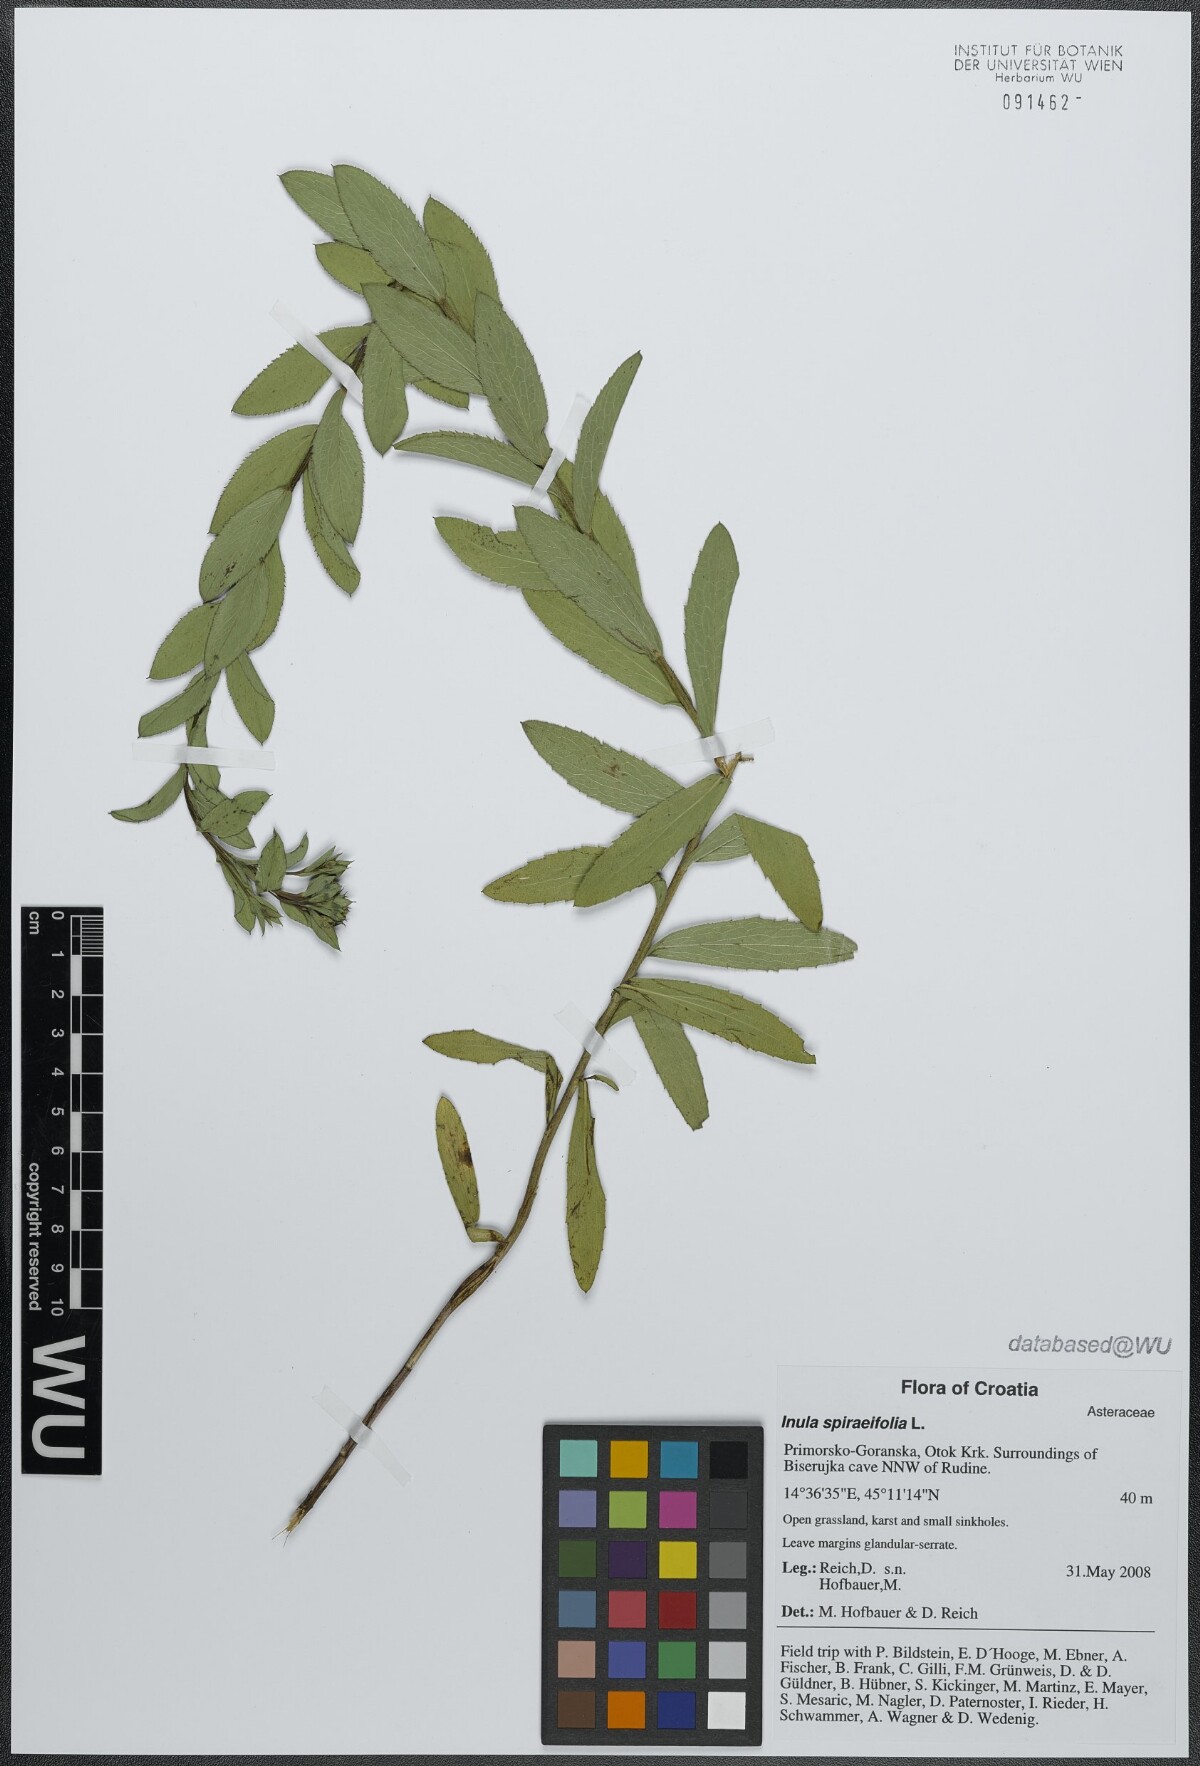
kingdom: Plantae
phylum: Tracheophyta
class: Magnoliopsida
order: Asterales
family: Asteraceae
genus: Pentanema
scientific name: Pentanema spiraeifolium
